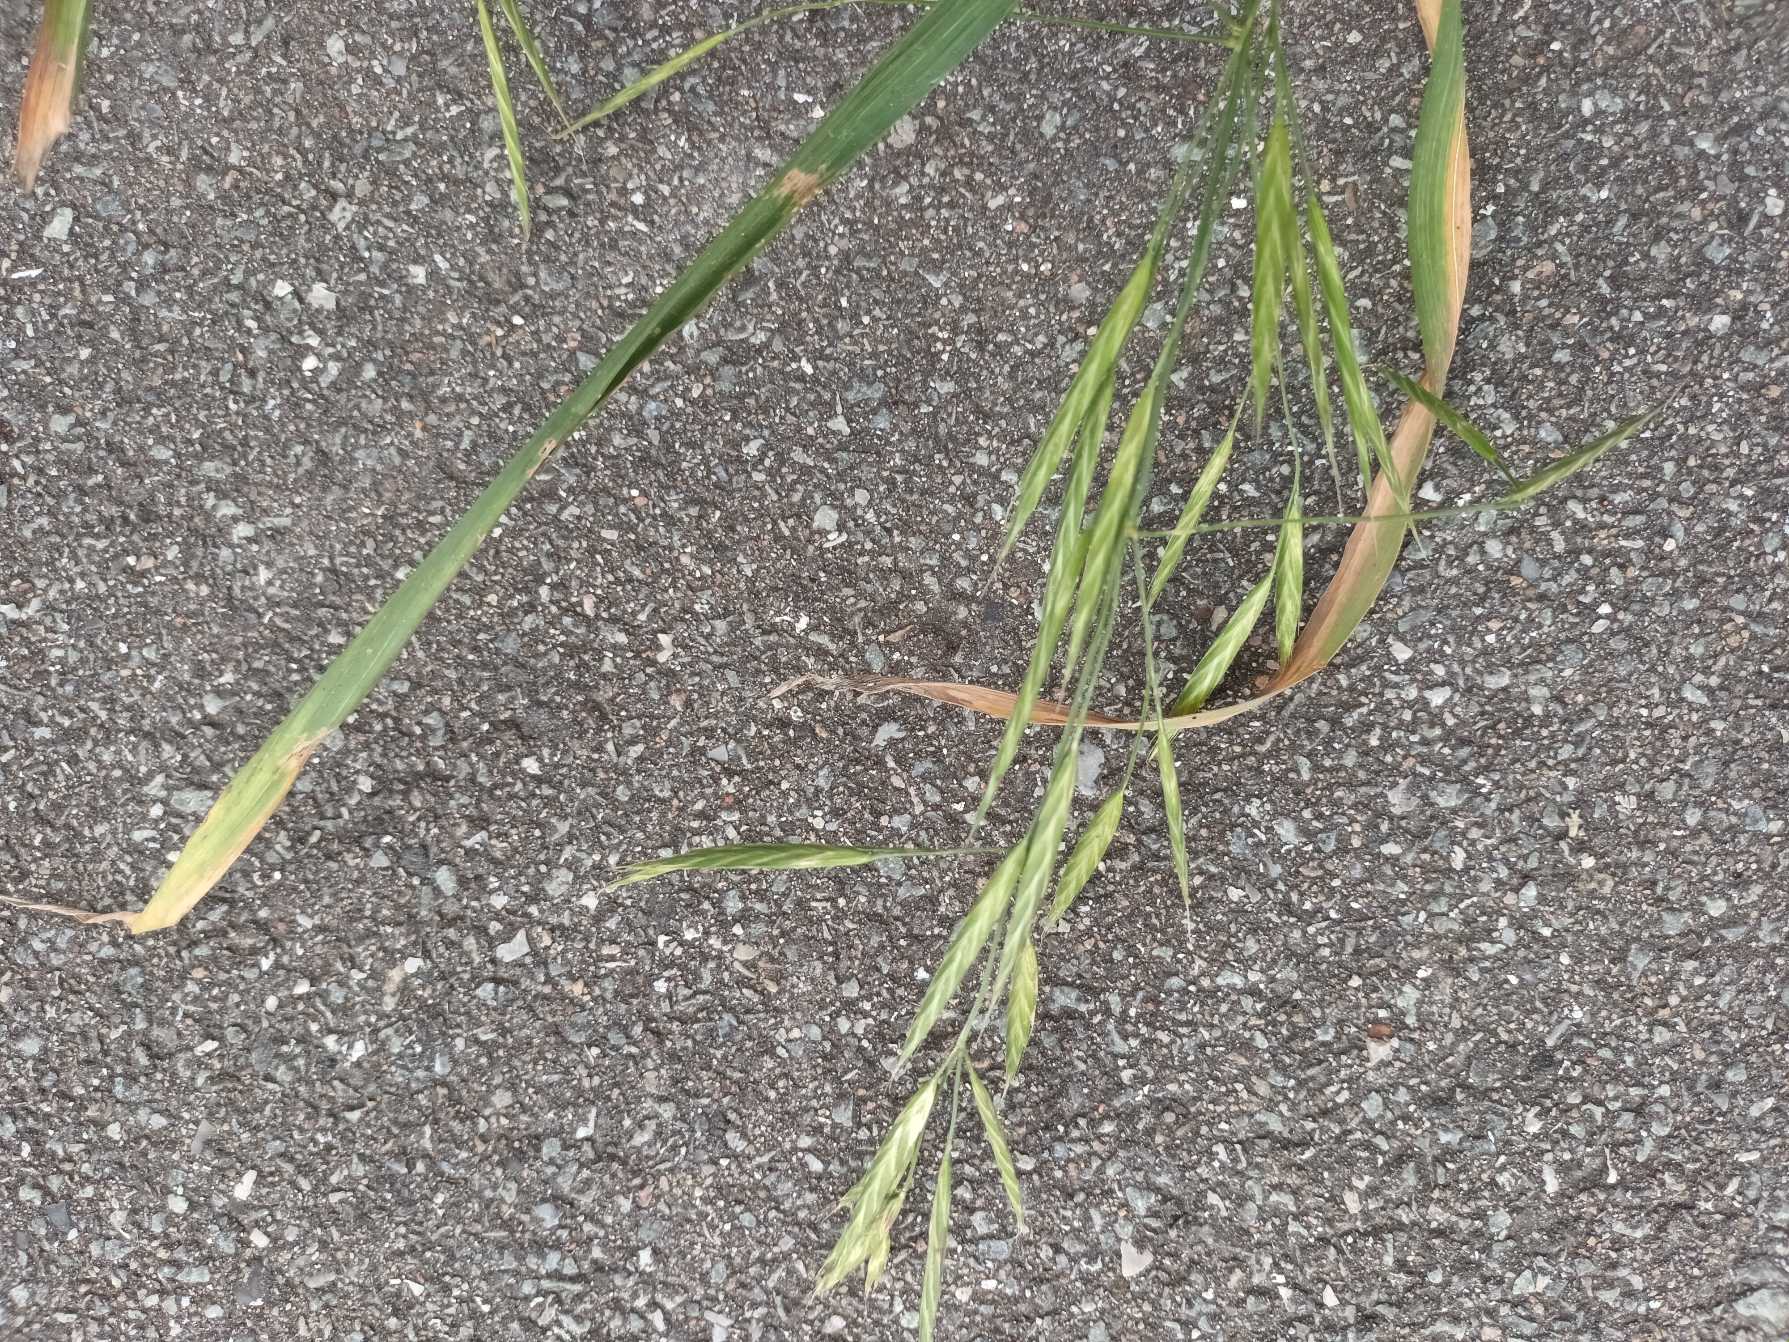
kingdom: Plantae
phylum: Tracheophyta
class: Liliopsida
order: Poales
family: Poaceae
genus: Bromus
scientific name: Bromus sitchensis
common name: Sitka-hejre
